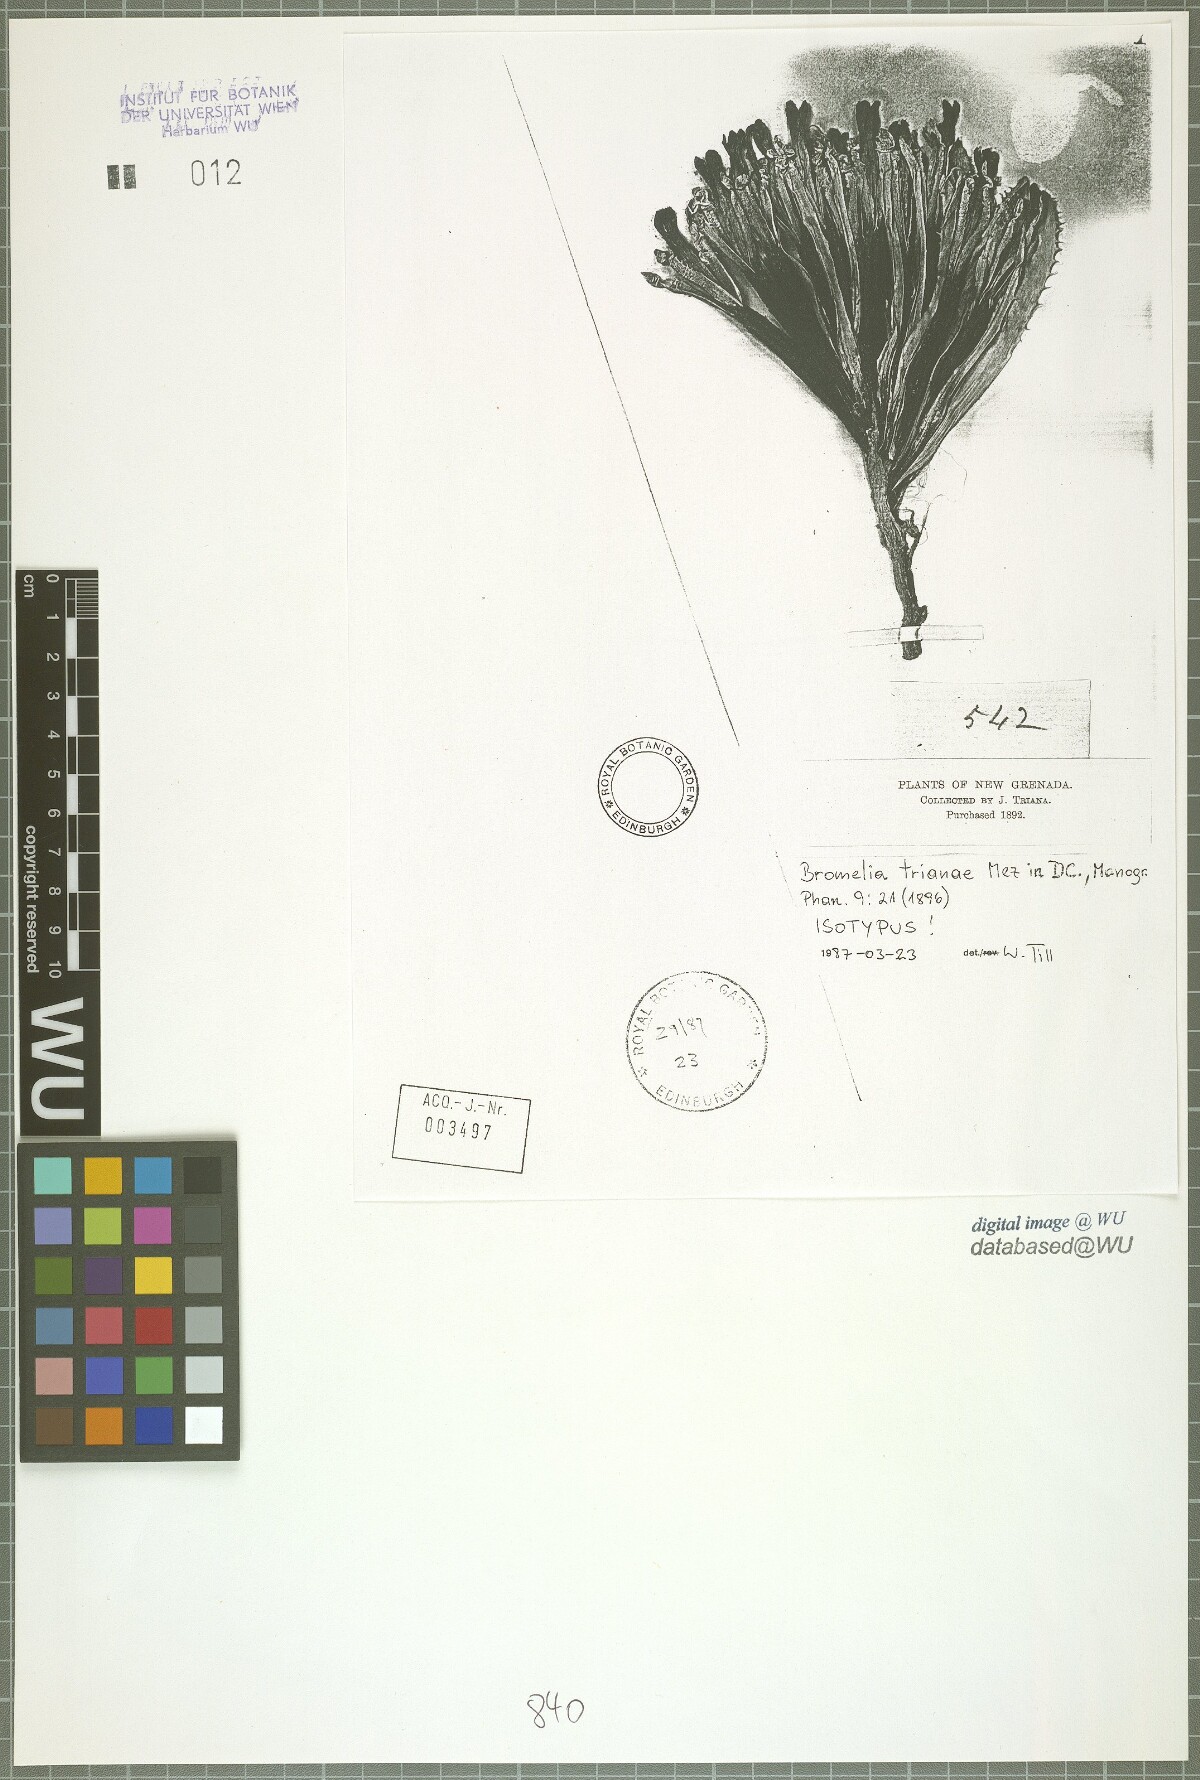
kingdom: Plantae
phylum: Tracheophyta
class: Liliopsida
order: Poales
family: Bromeliaceae
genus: Bromelia
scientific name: Bromelia trianae
